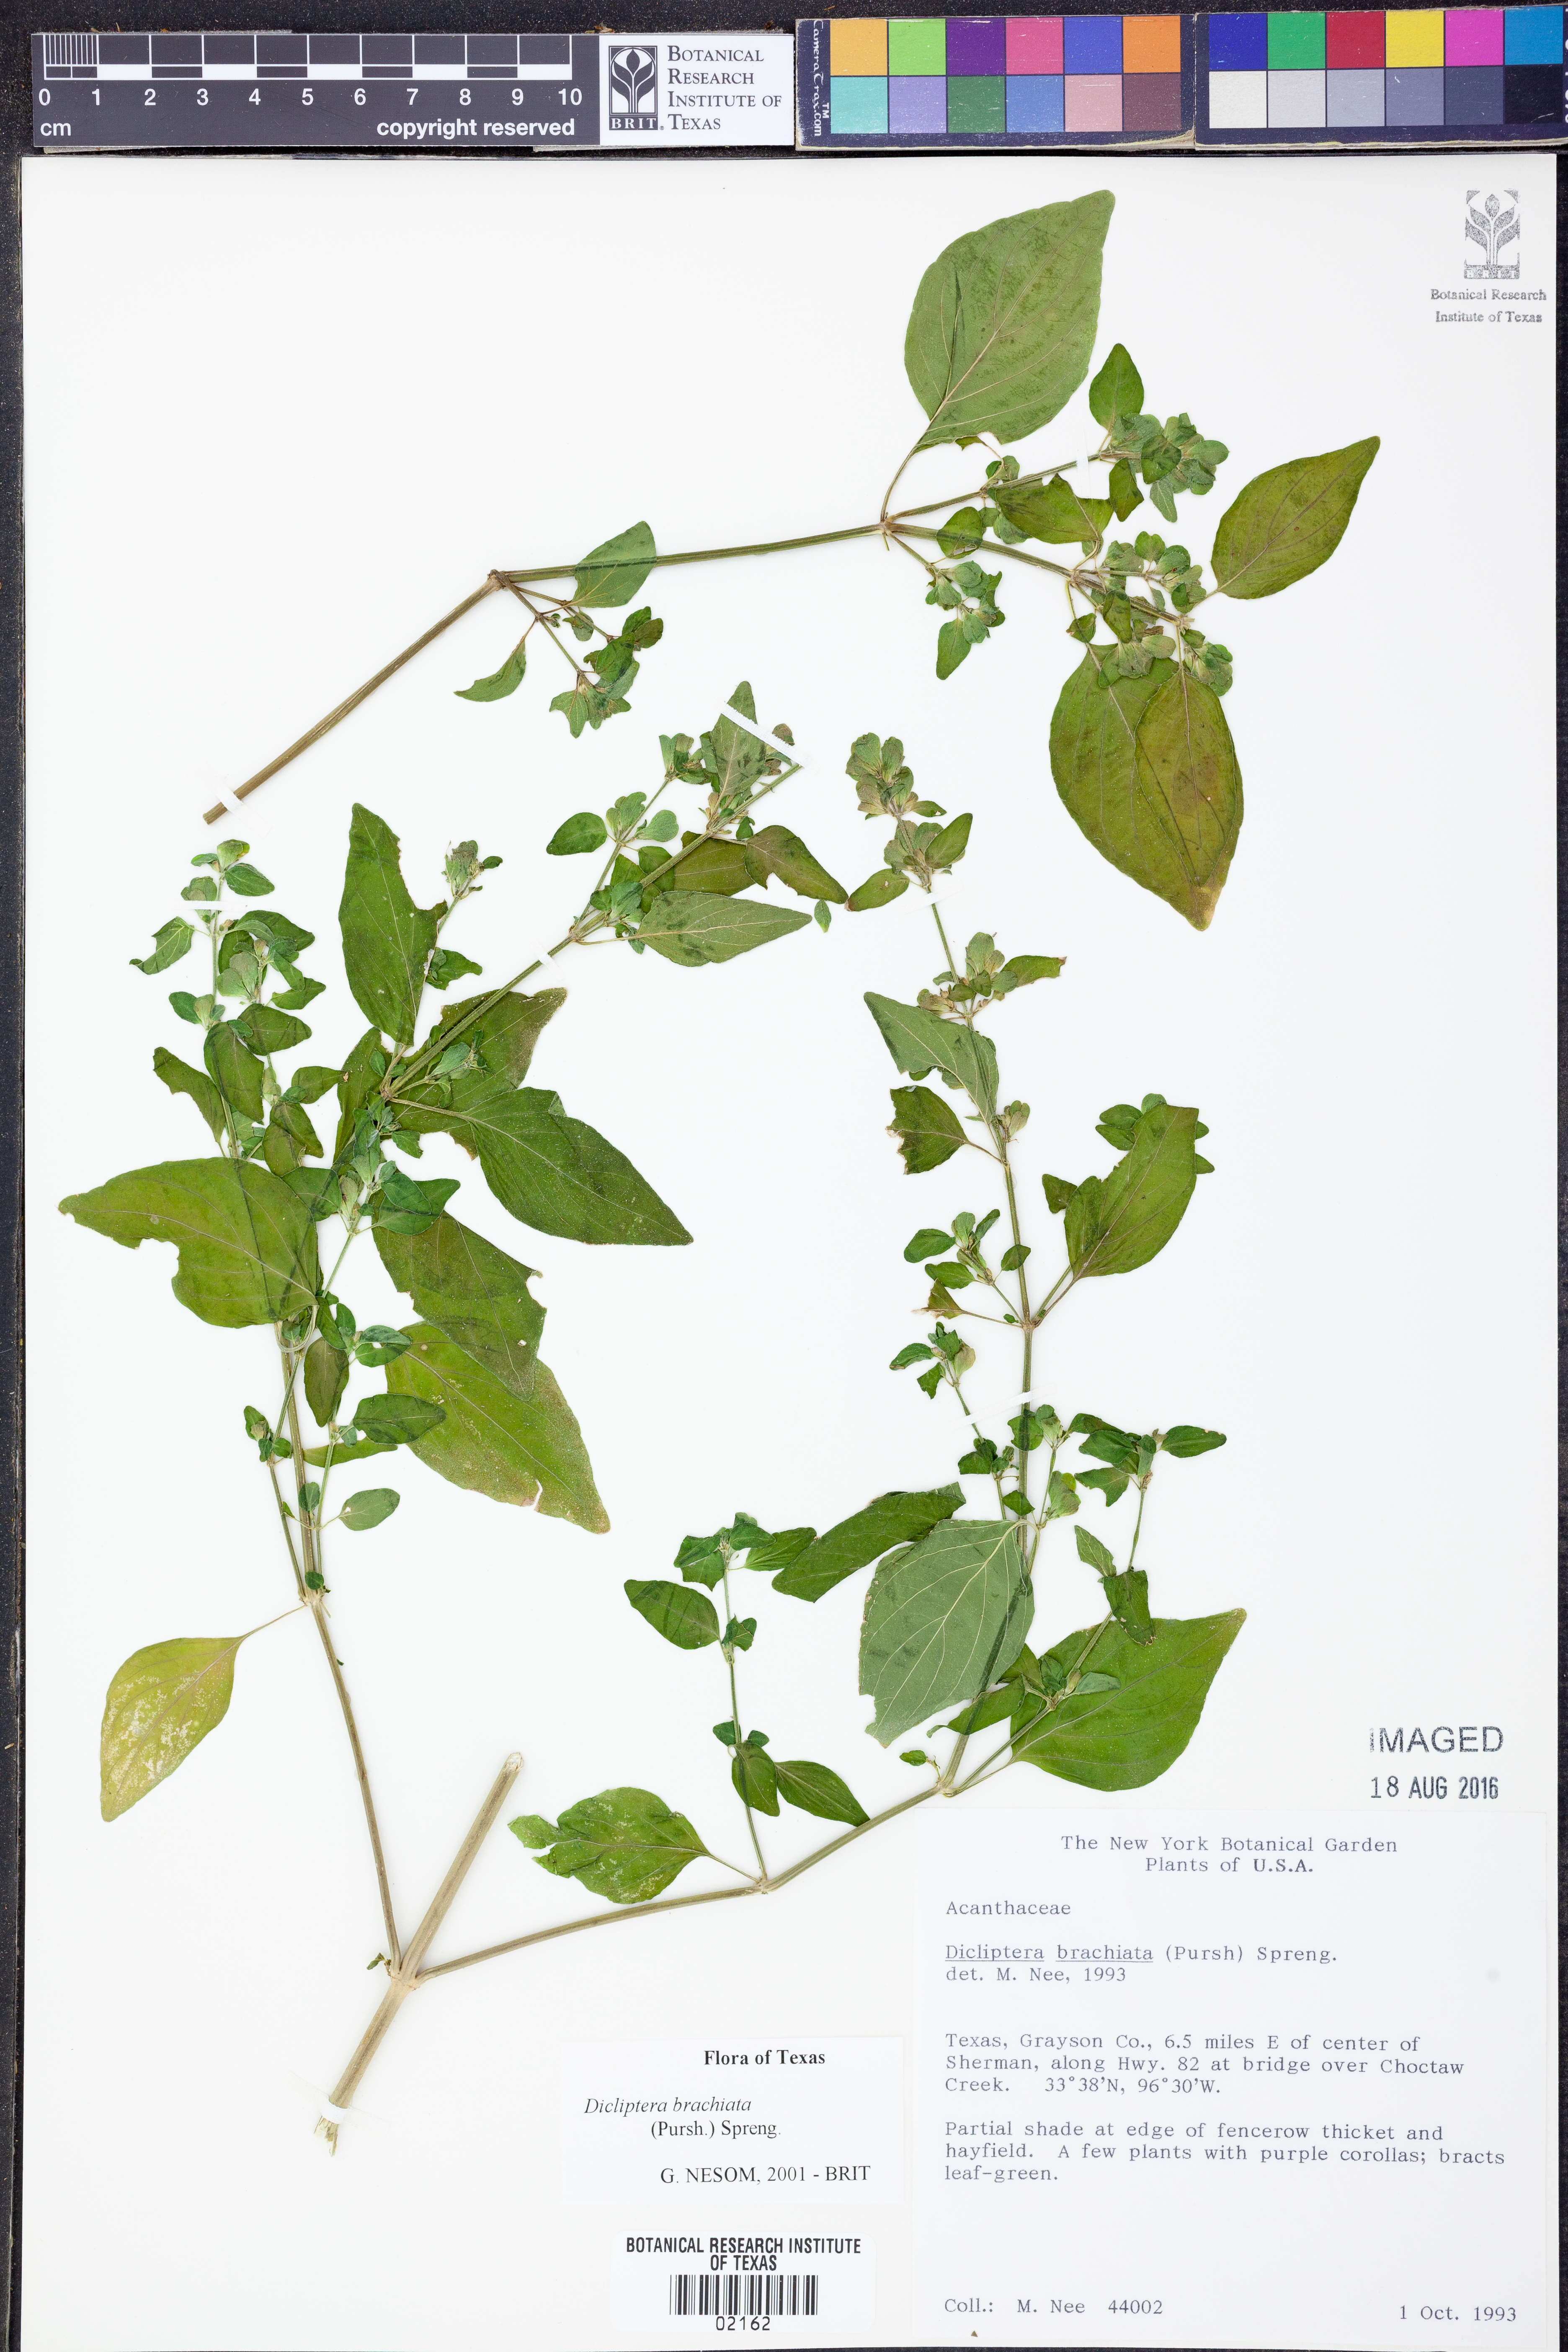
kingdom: Plantae
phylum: Tracheophyta
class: Magnoliopsida
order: Lamiales
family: Acanthaceae
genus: Dicliptera
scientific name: Dicliptera brachiata
